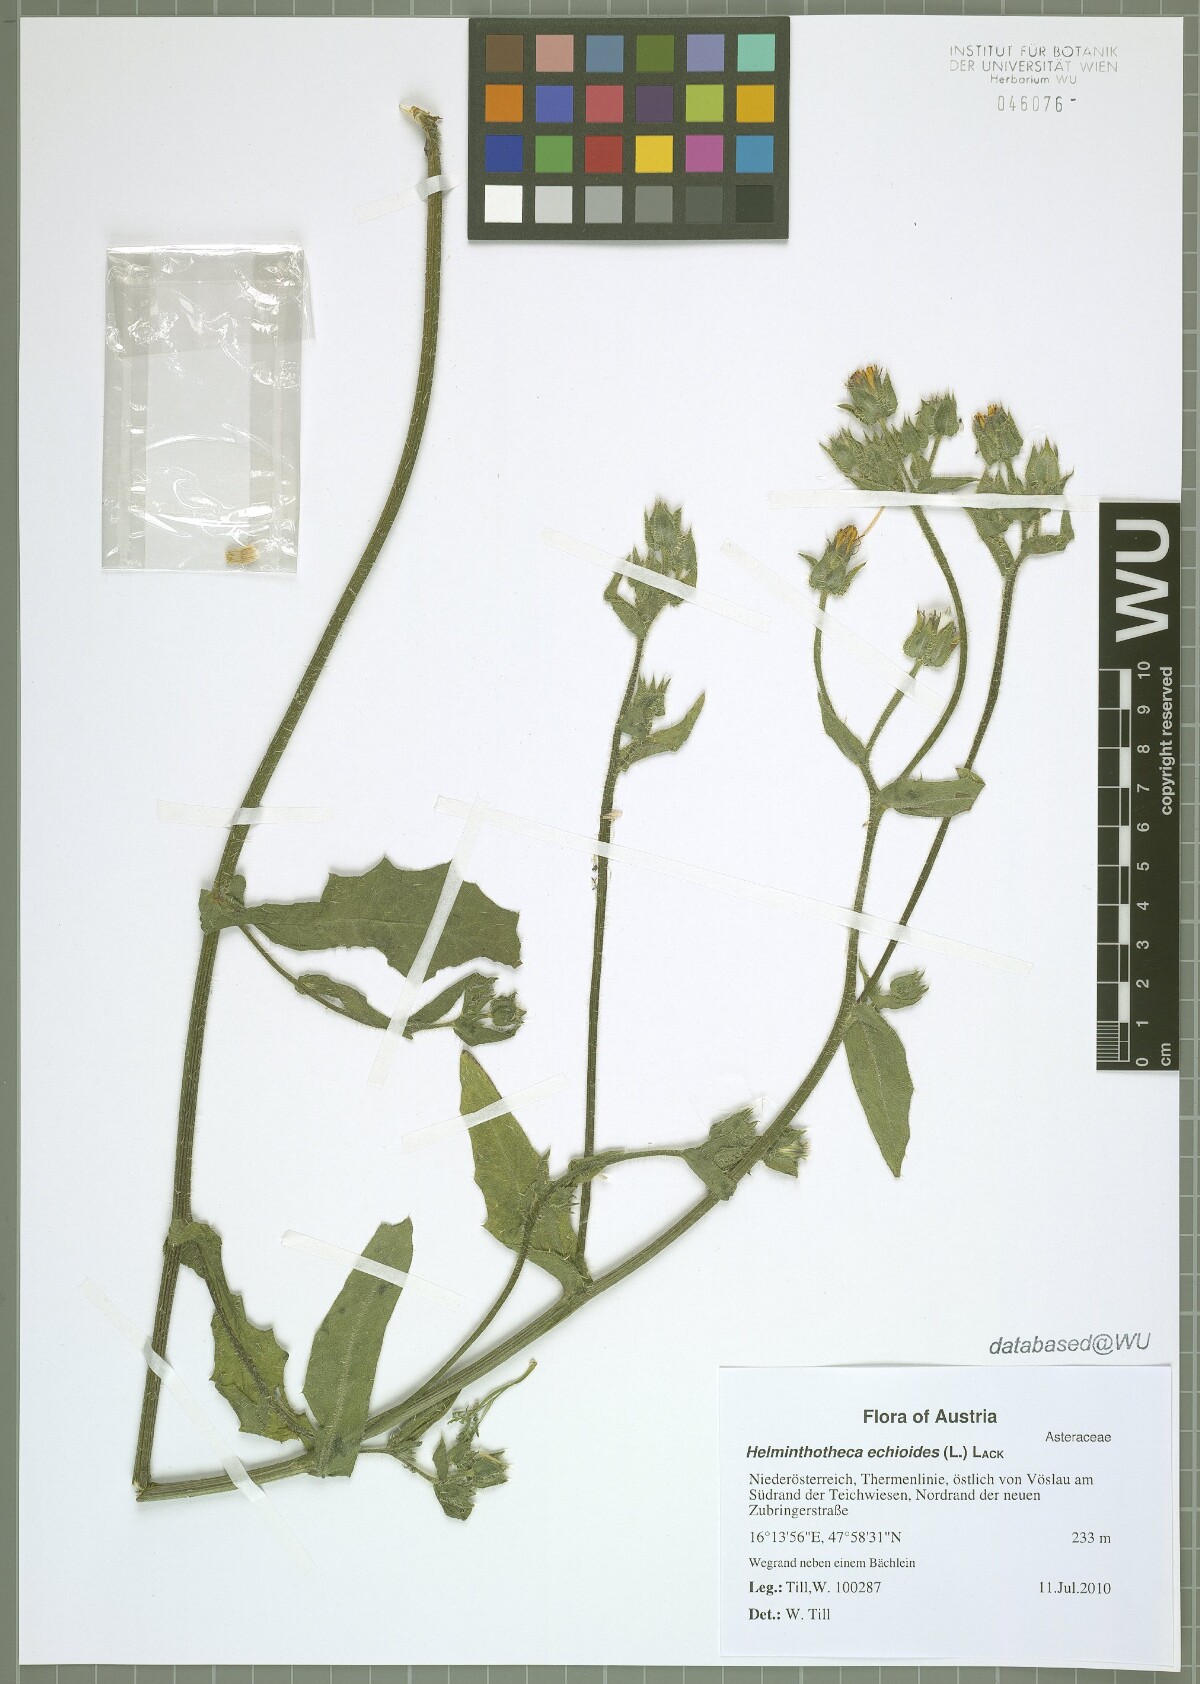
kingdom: Plantae
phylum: Tracheophyta
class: Magnoliopsida
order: Asterales
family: Asteraceae
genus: Helminthotheca
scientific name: Helminthotheca echioides
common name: Ox-tongue
